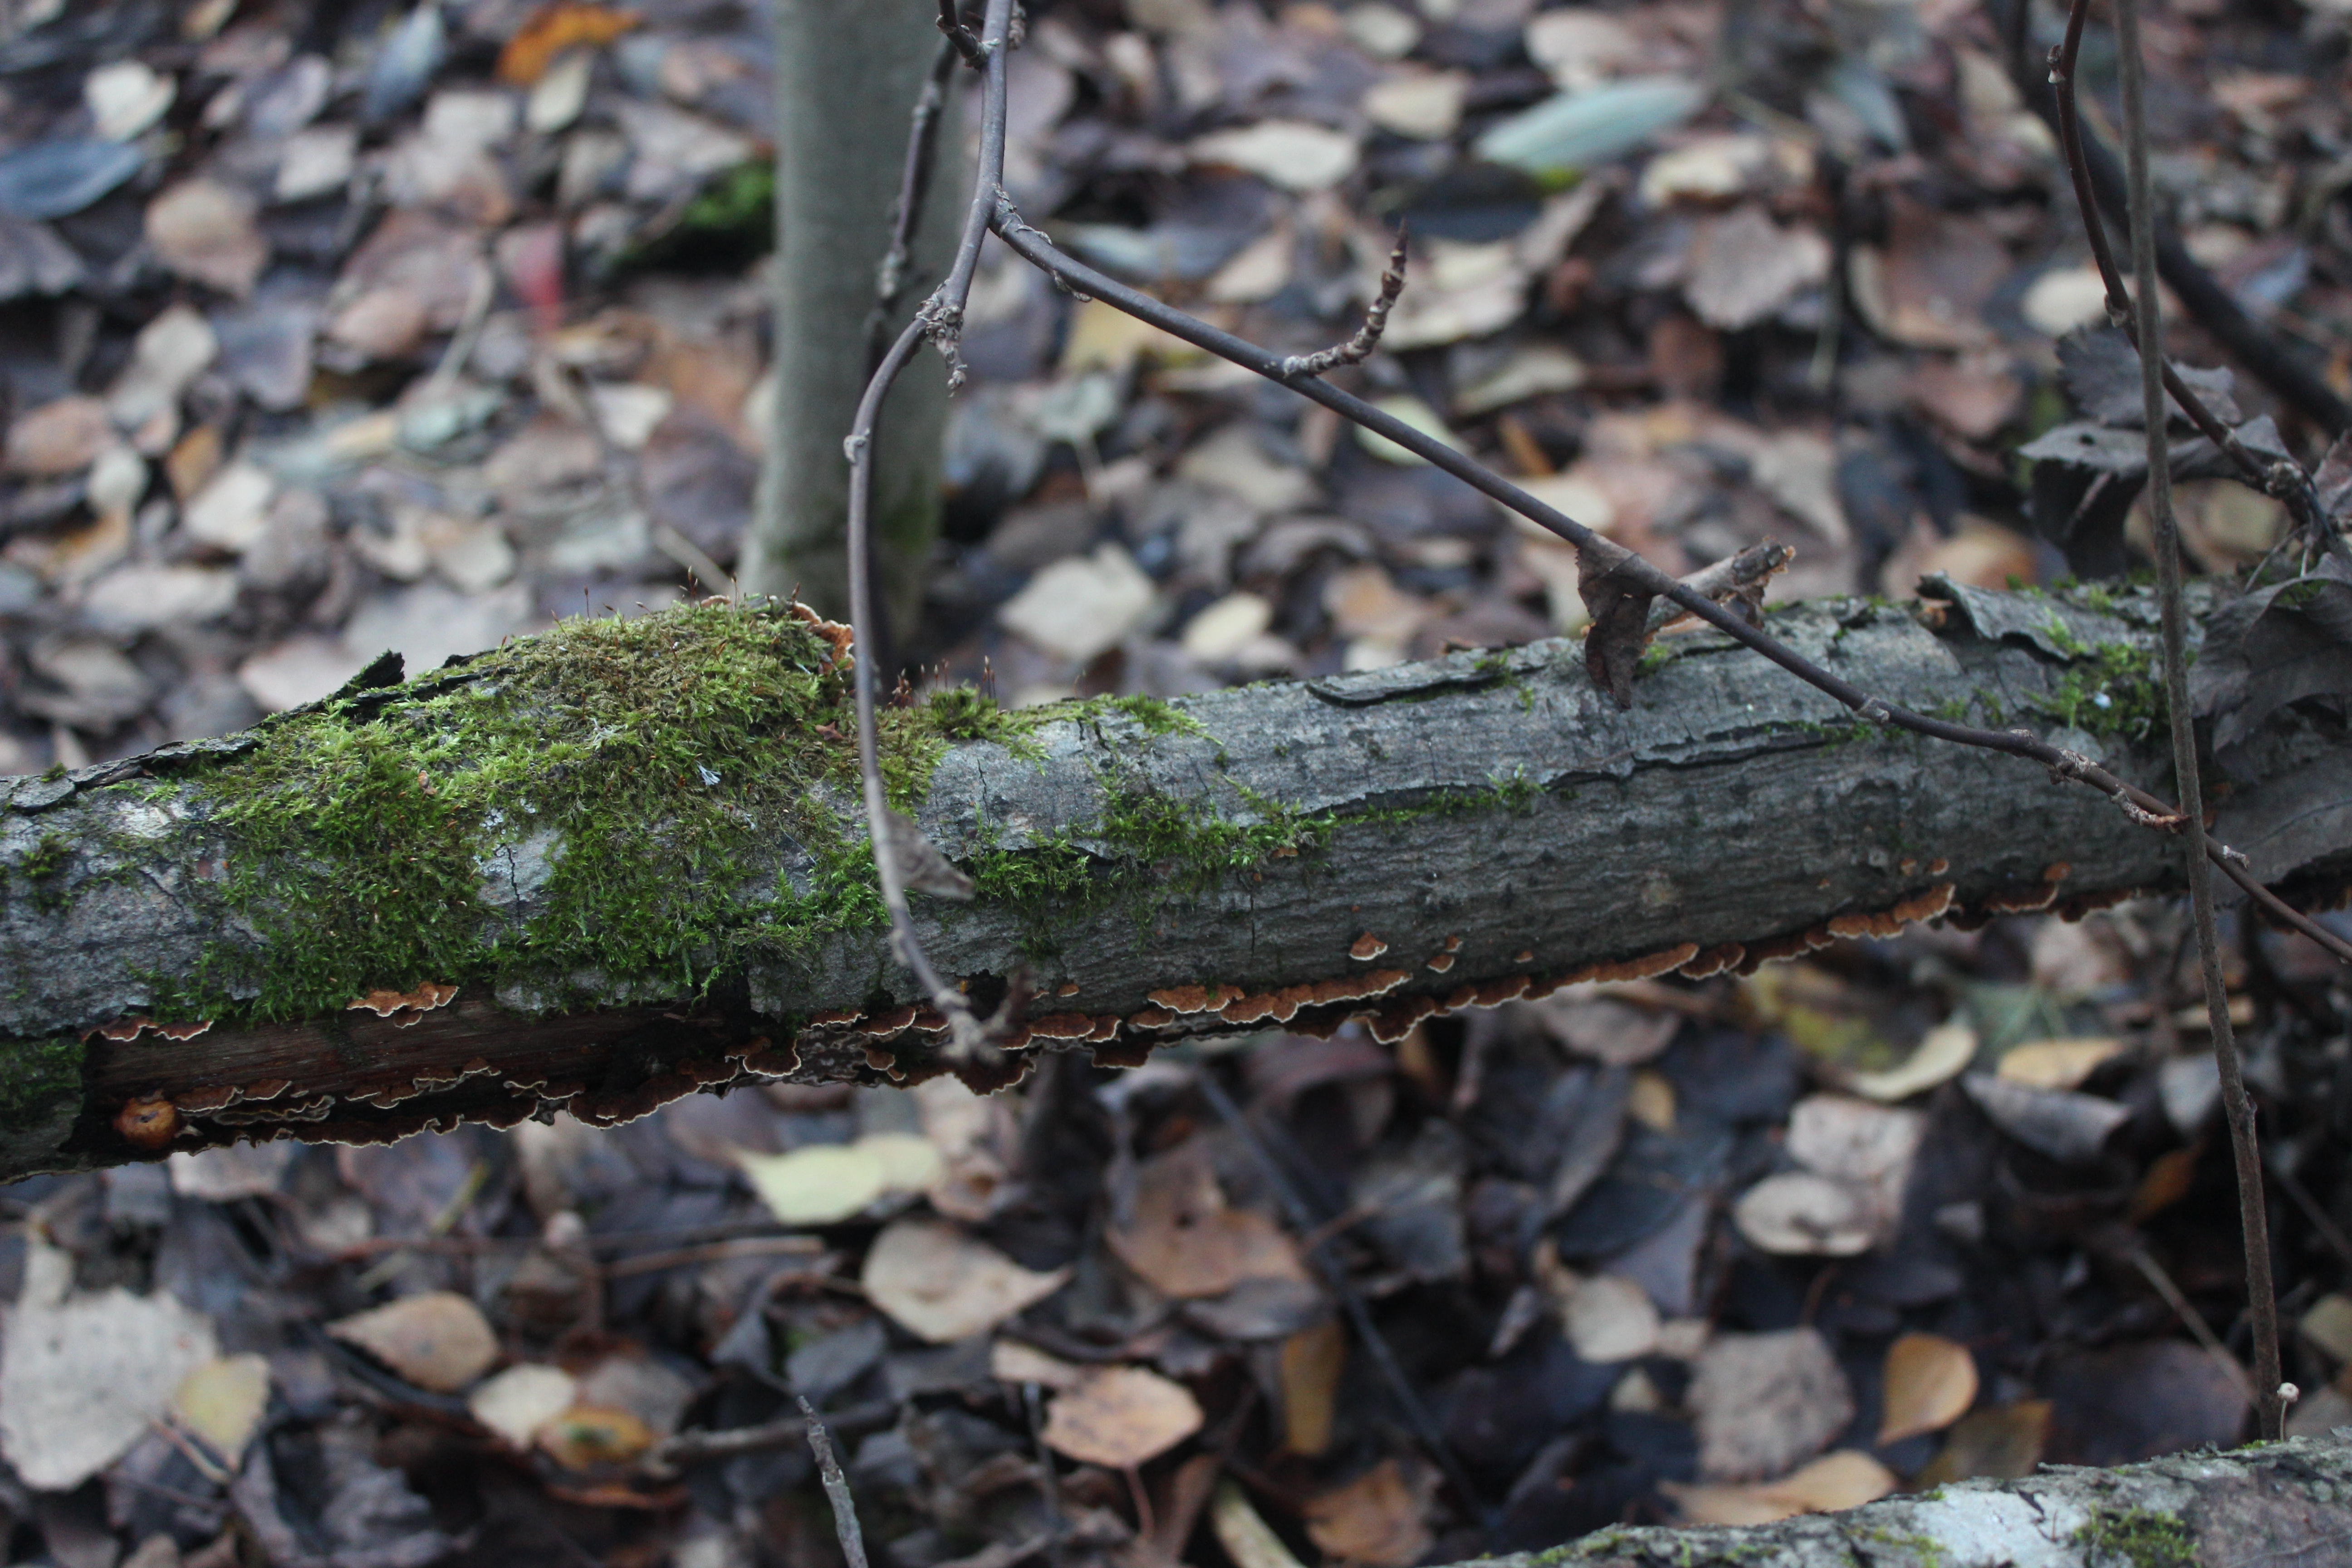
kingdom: Fungi
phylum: Basidiomycota
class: Agaricomycetes
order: Hymenochaetales
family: Hymenochaetaceae
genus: Hydnoporia
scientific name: Hydnoporia tabacina
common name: Willow glue
